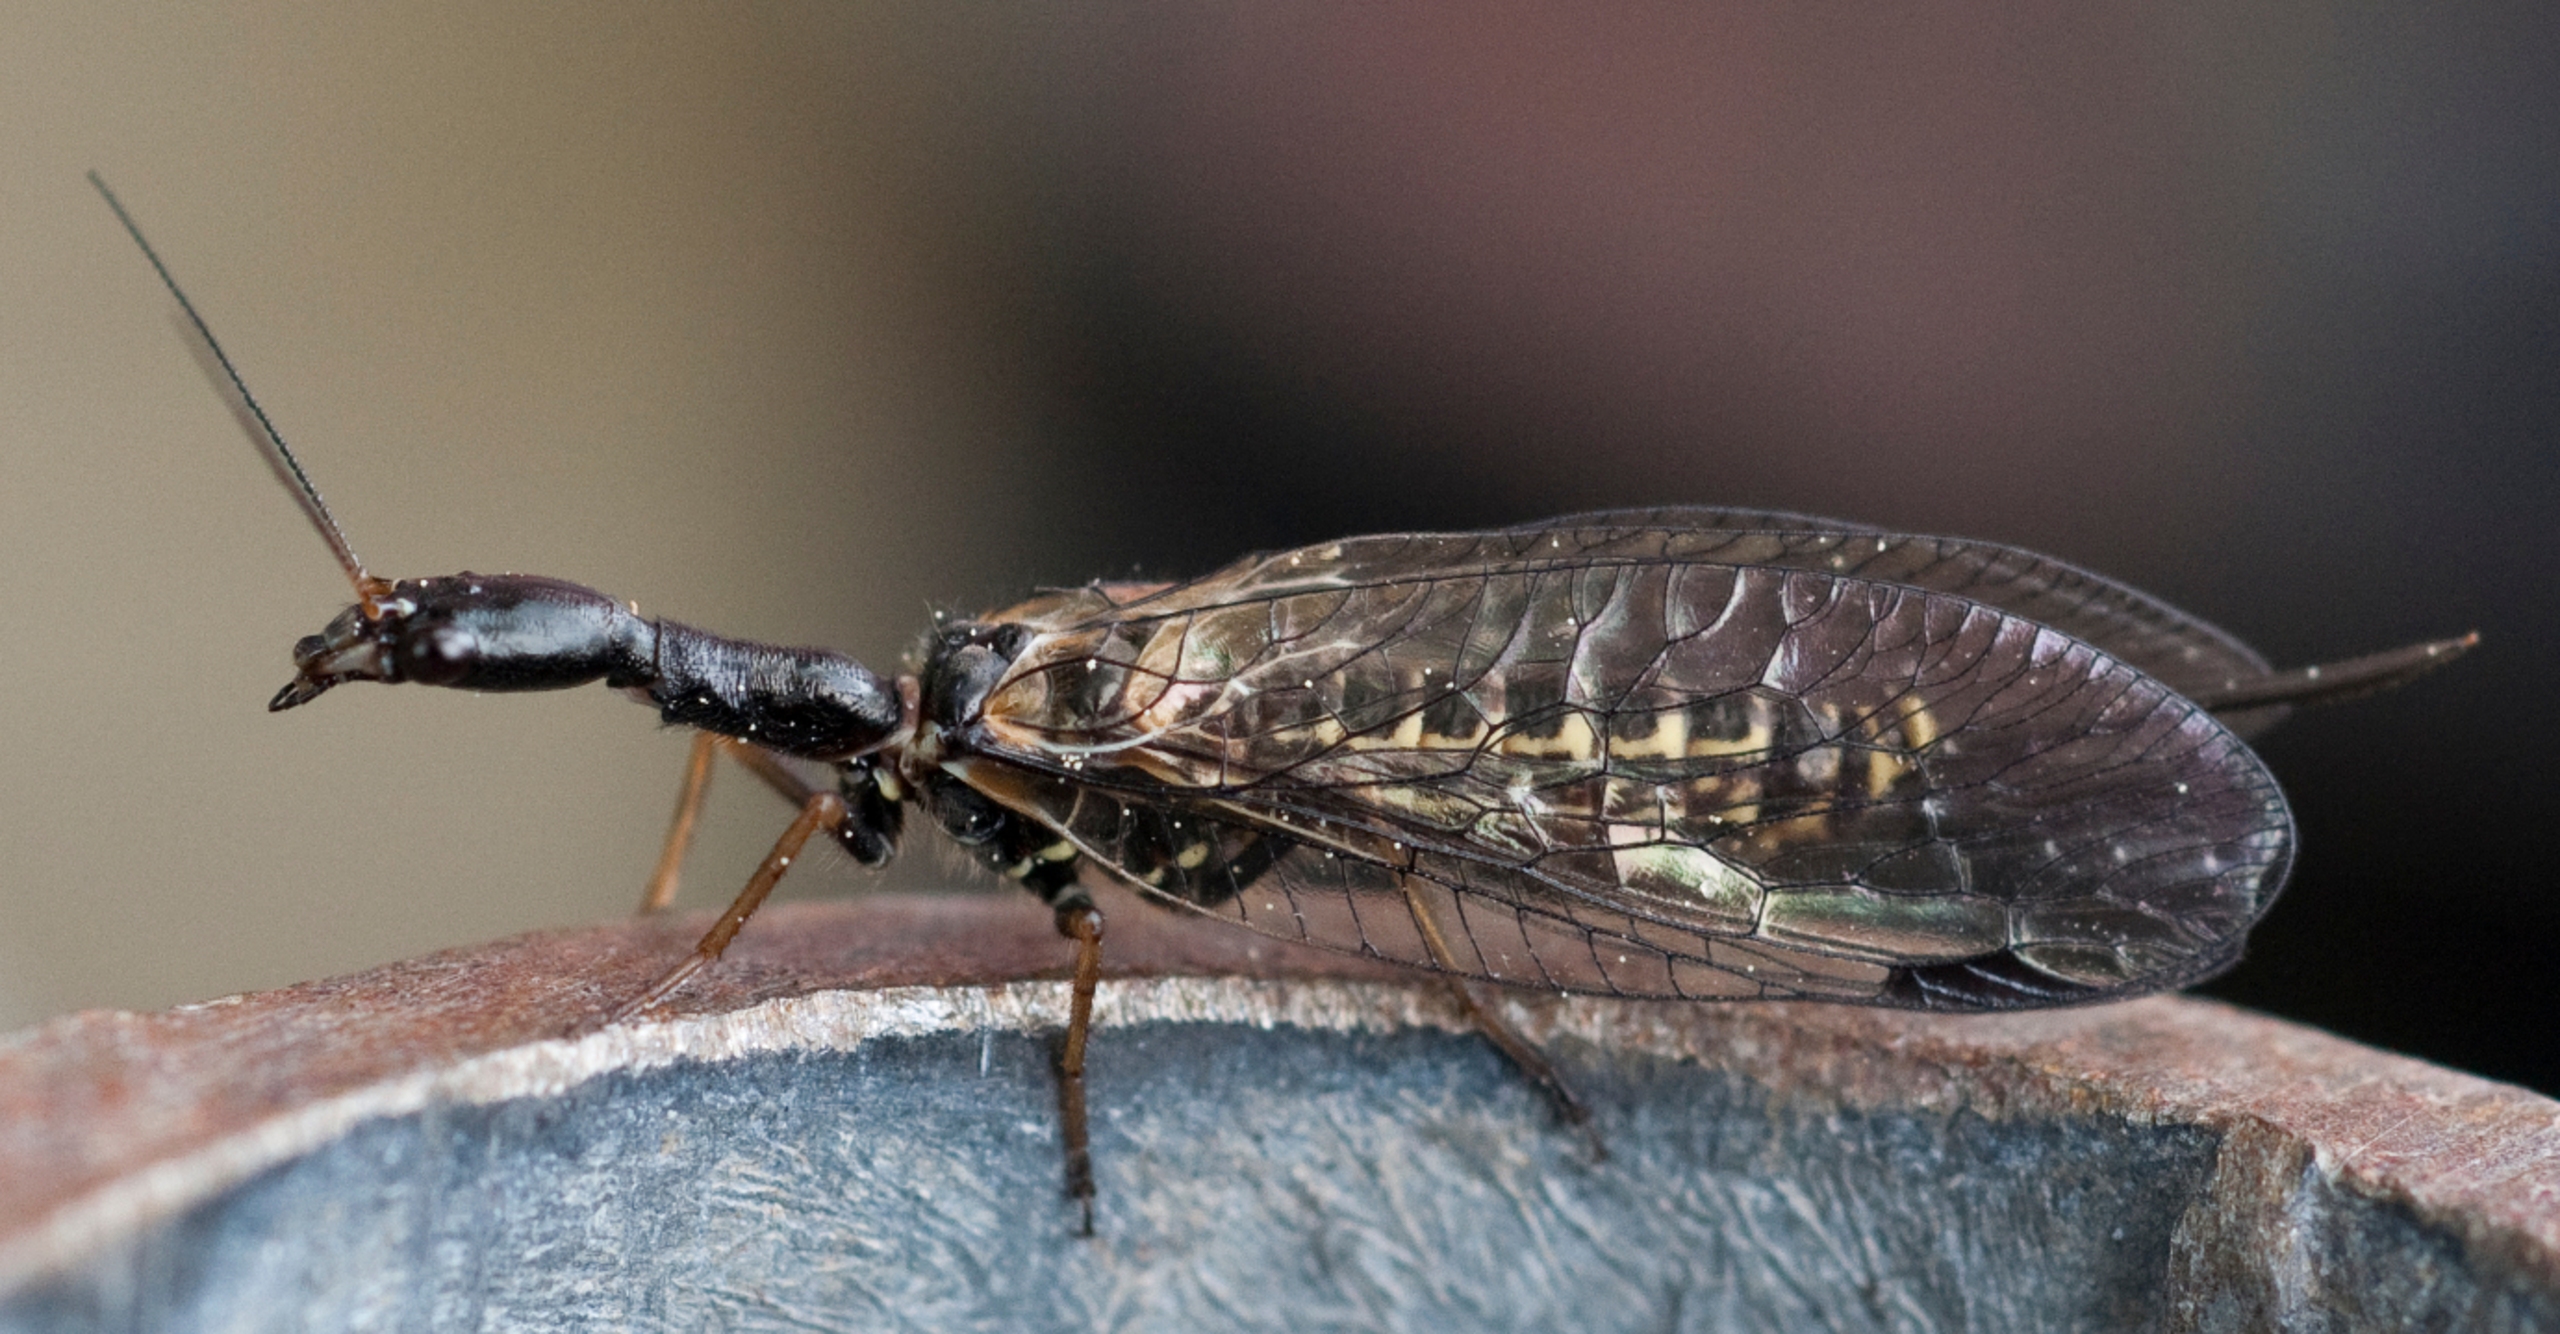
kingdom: Animalia
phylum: Arthropoda
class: Insecta
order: Raphidioptera
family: Raphidiidae
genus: Phaeostigma
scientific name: Phaeostigma notatum
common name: Stor kamelhalsflue
